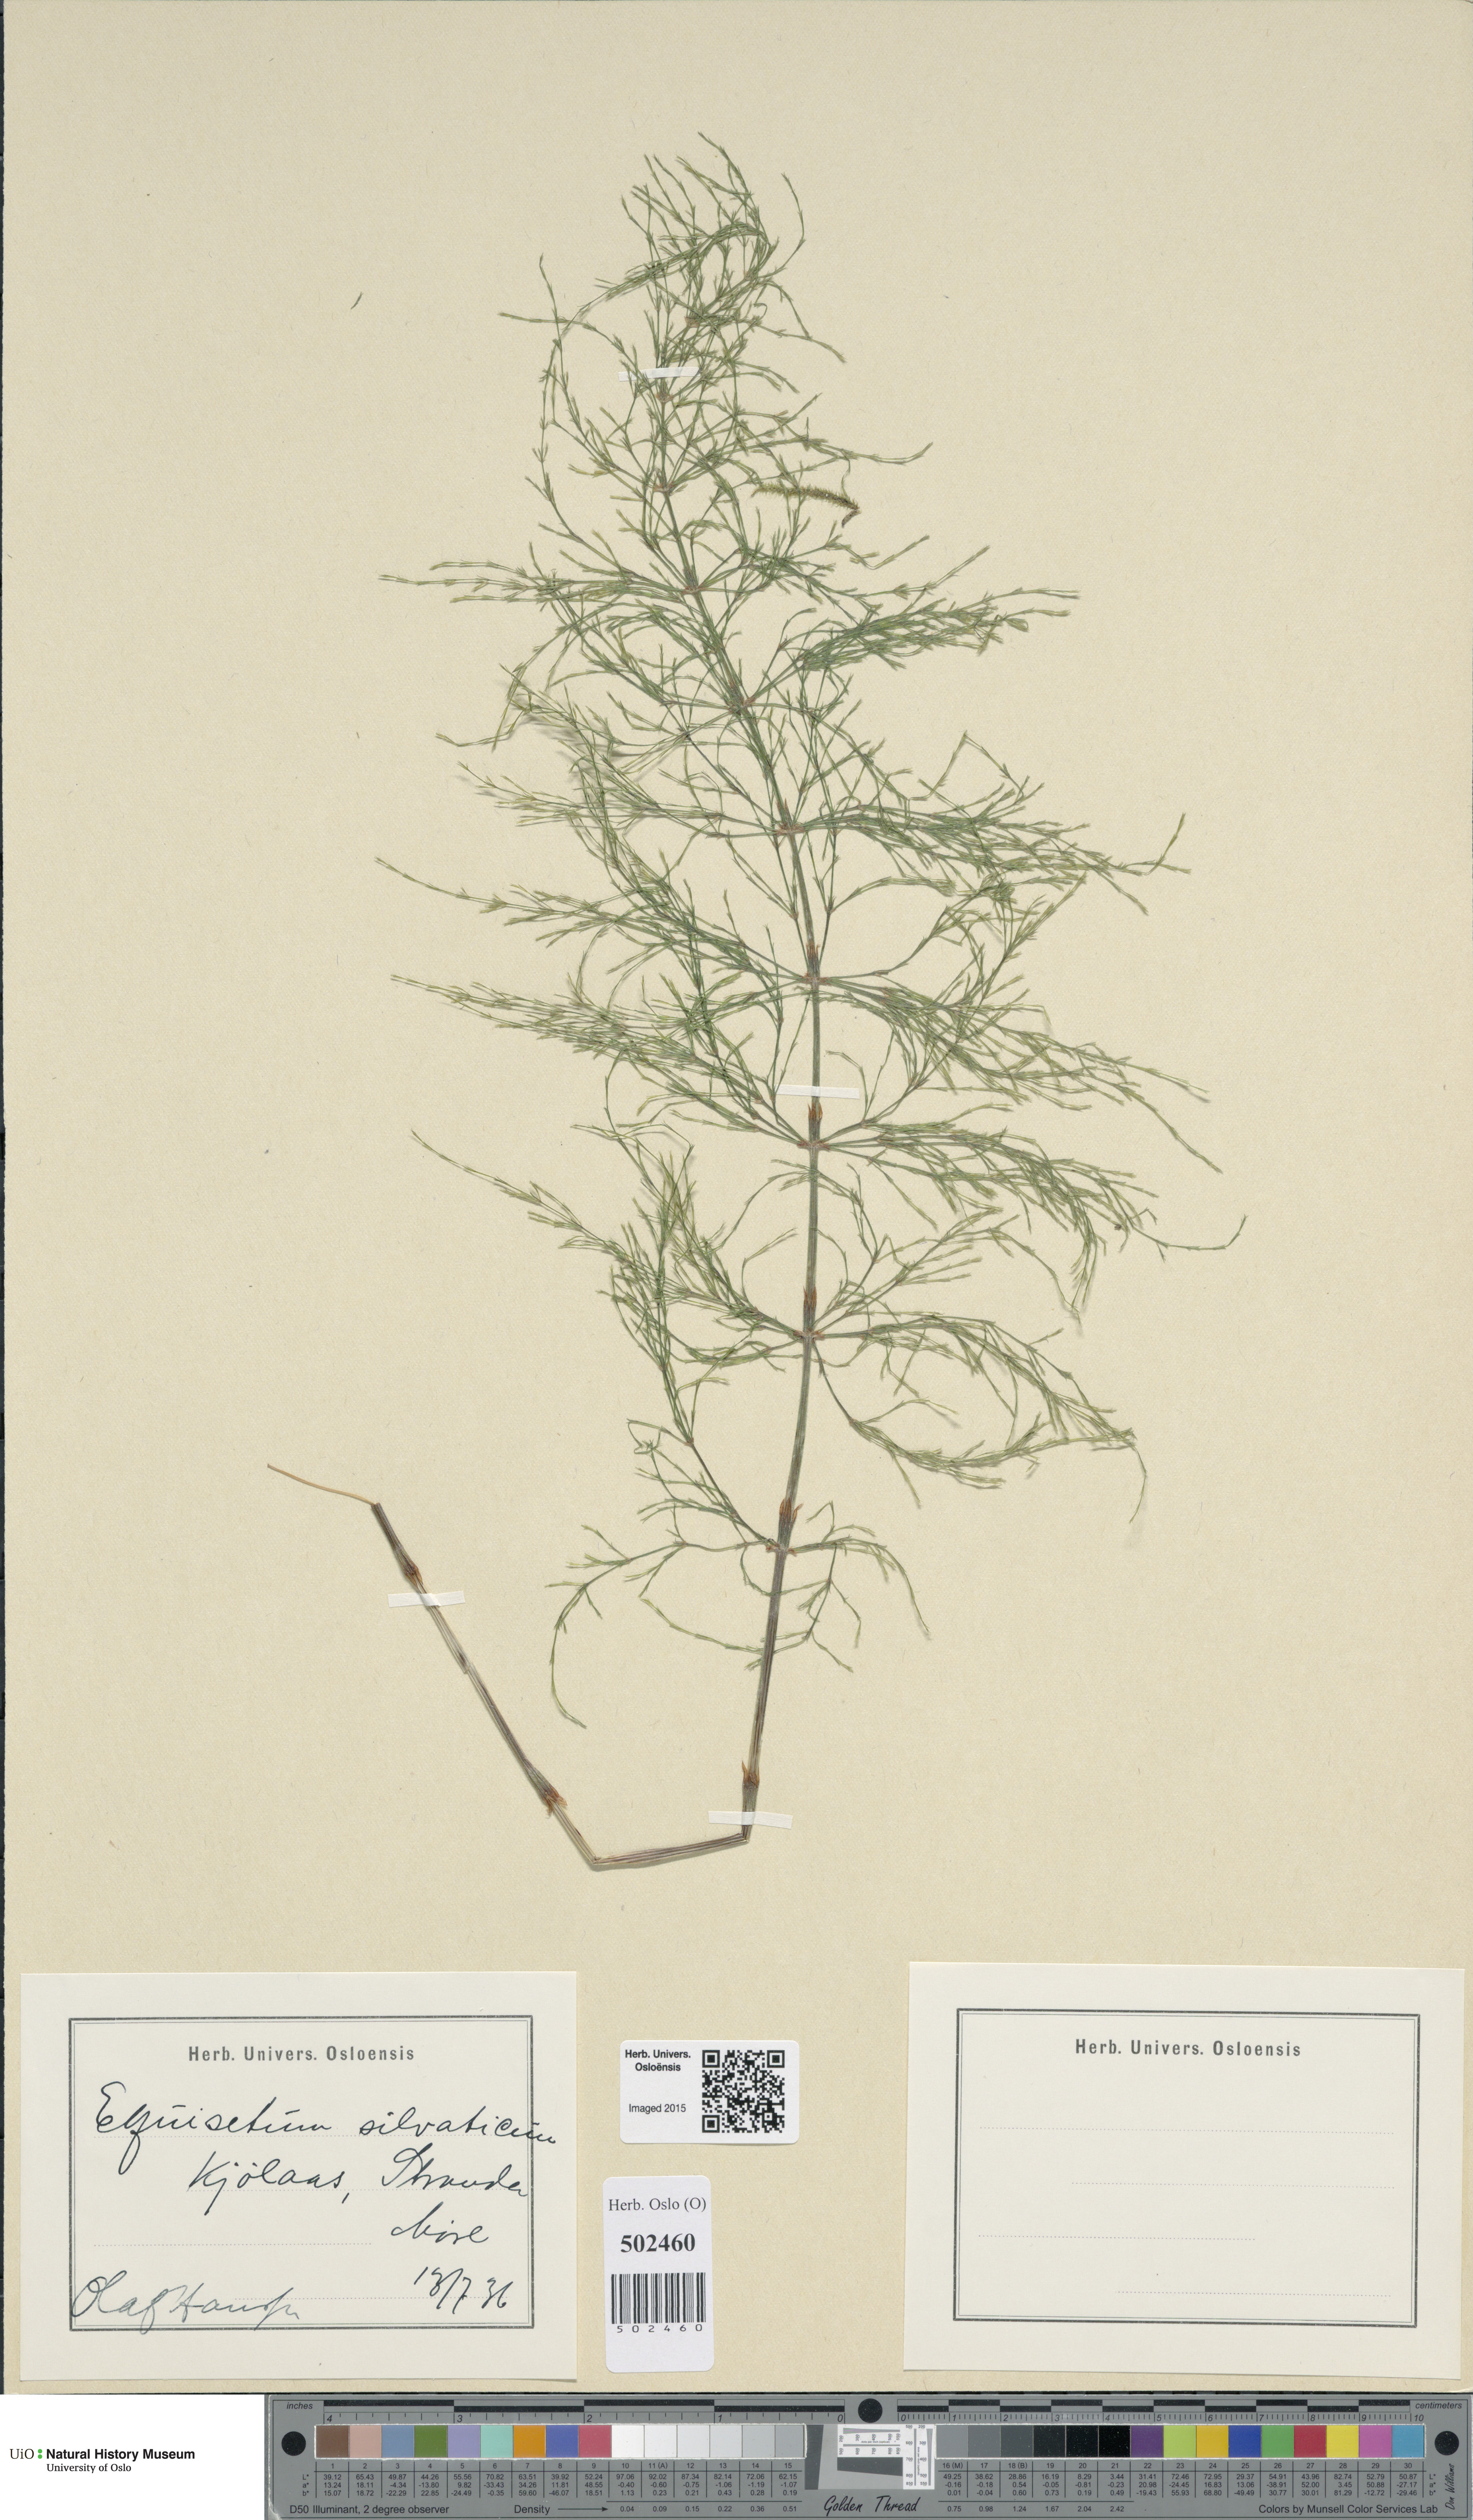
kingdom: Plantae
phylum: Tracheophyta
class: Polypodiopsida
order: Equisetales
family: Equisetaceae
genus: Equisetum
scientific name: Equisetum sylvaticum
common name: Wood horsetail
